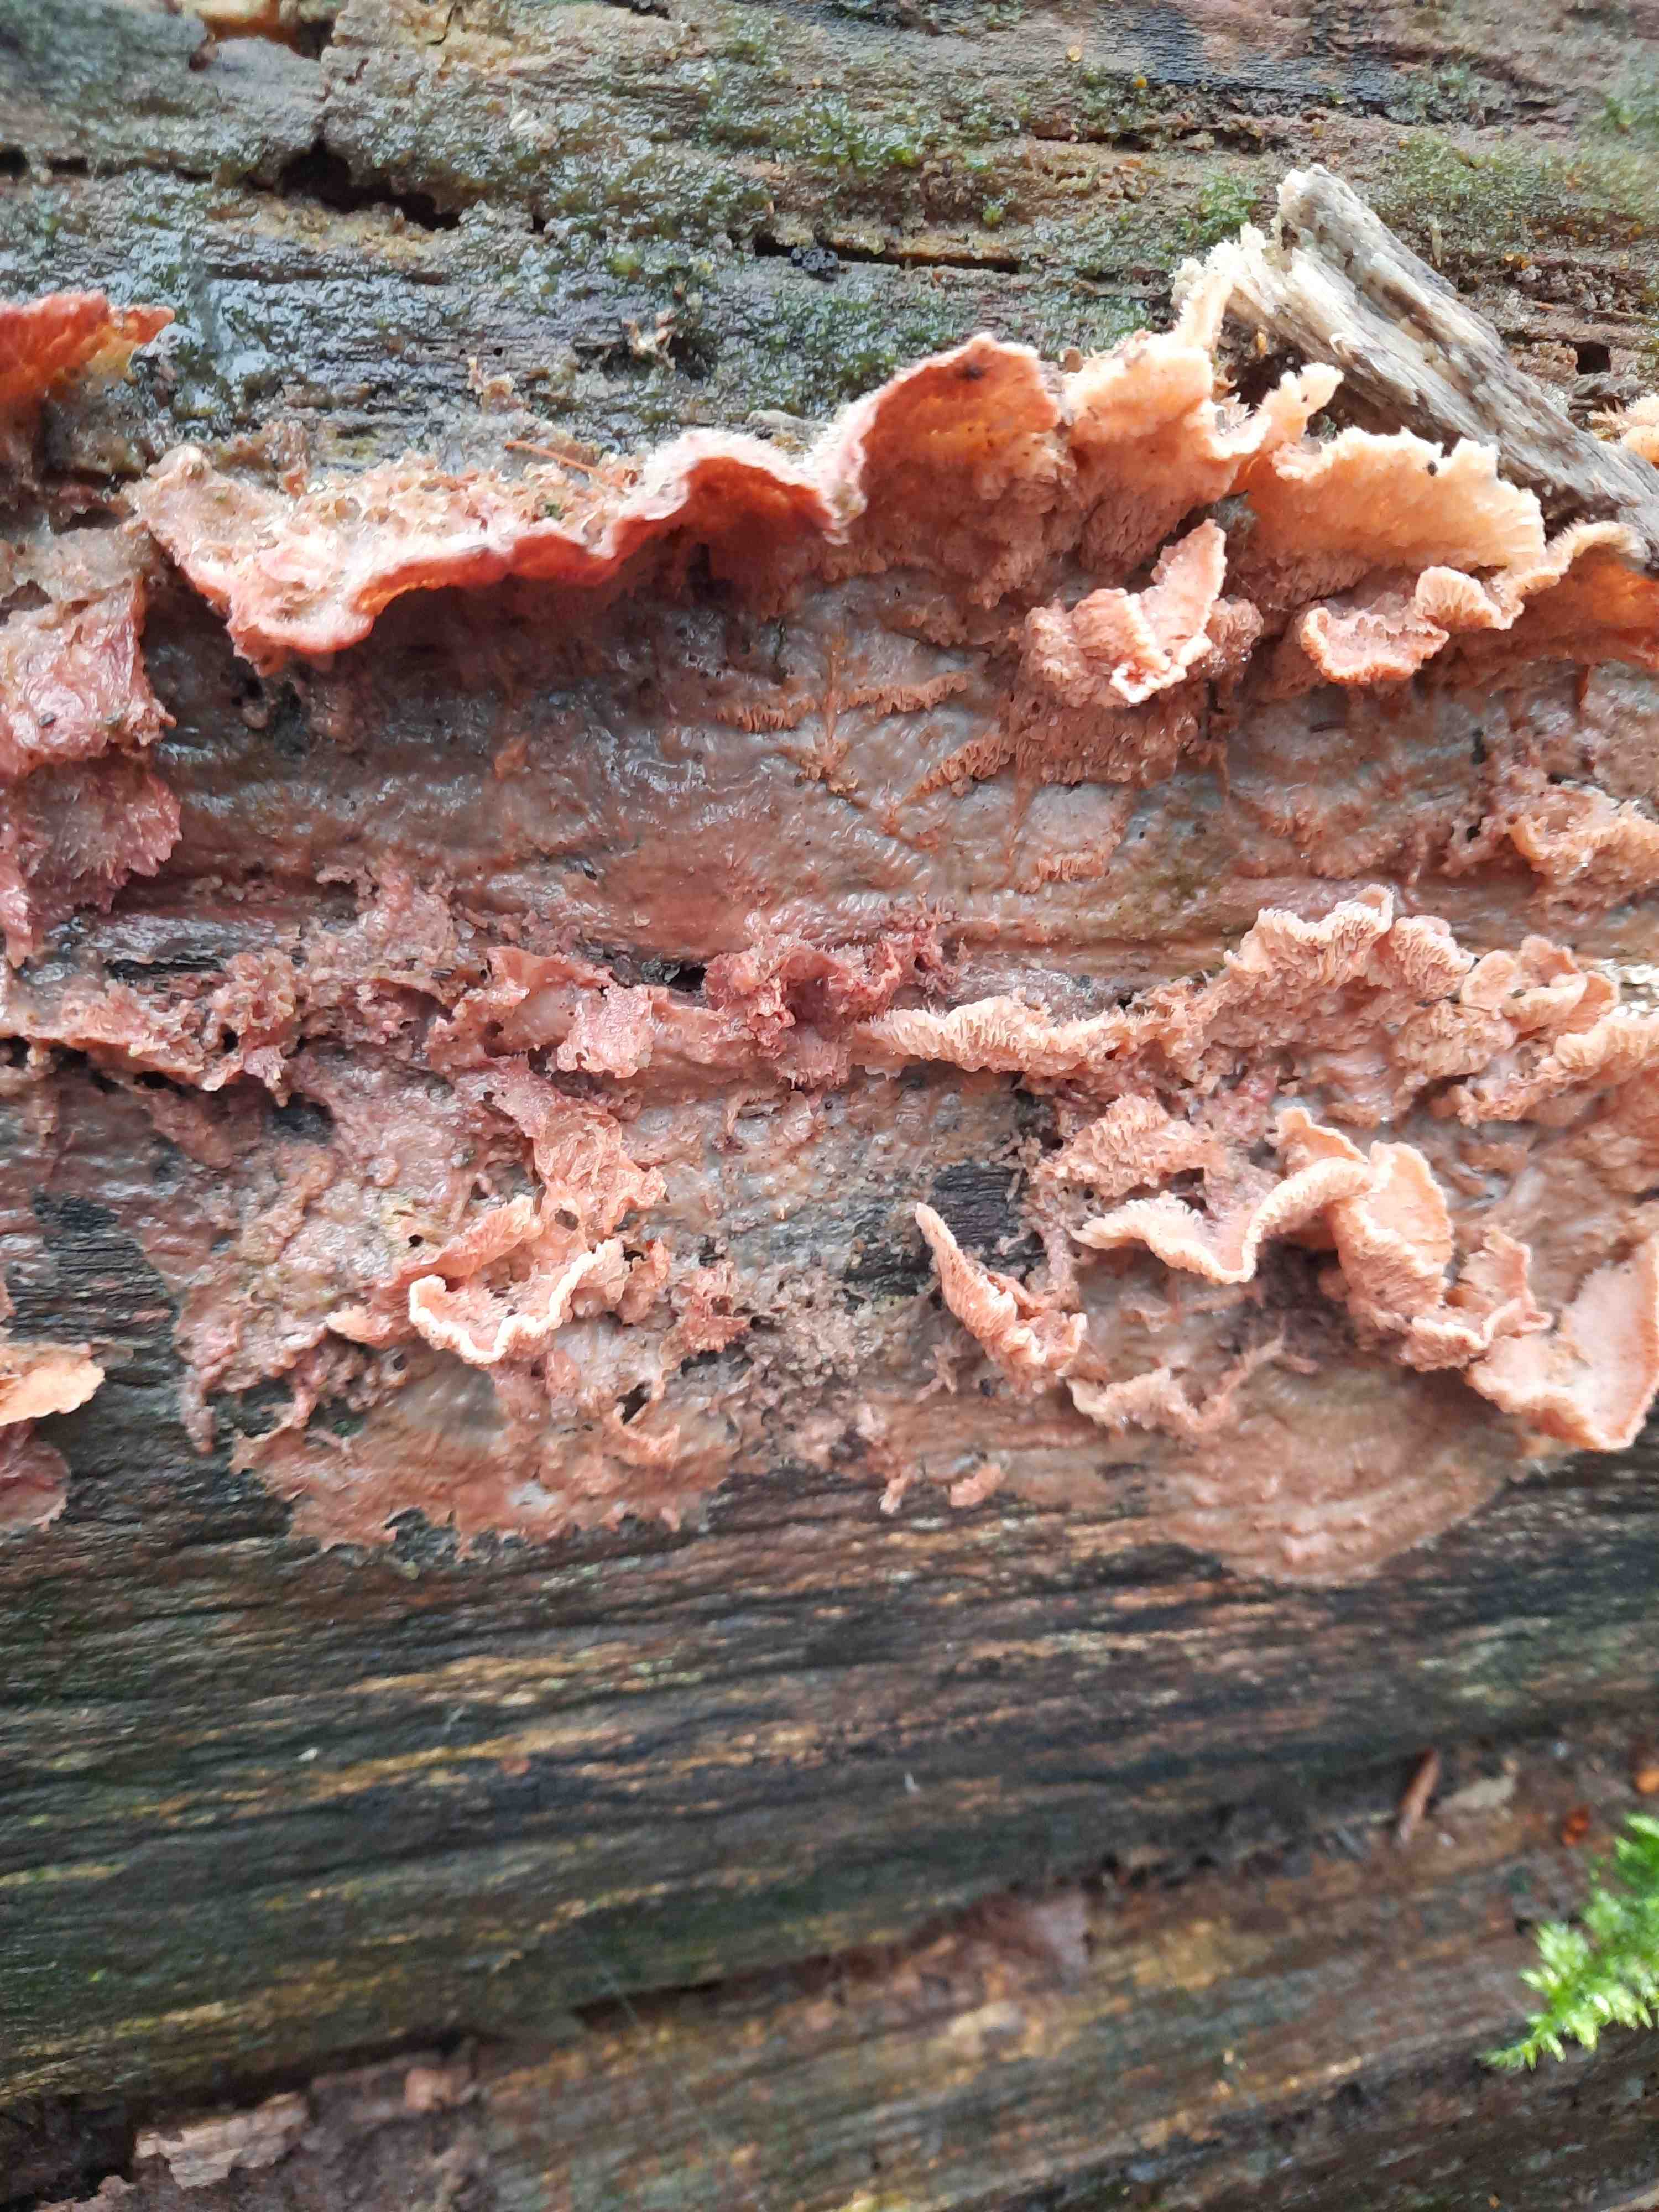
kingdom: Fungi
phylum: Basidiomycota
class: Agaricomycetes
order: Polyporales
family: Meruliaceae
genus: Phlebia
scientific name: Phlebia tremellosa
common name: bævrende åresvamp
